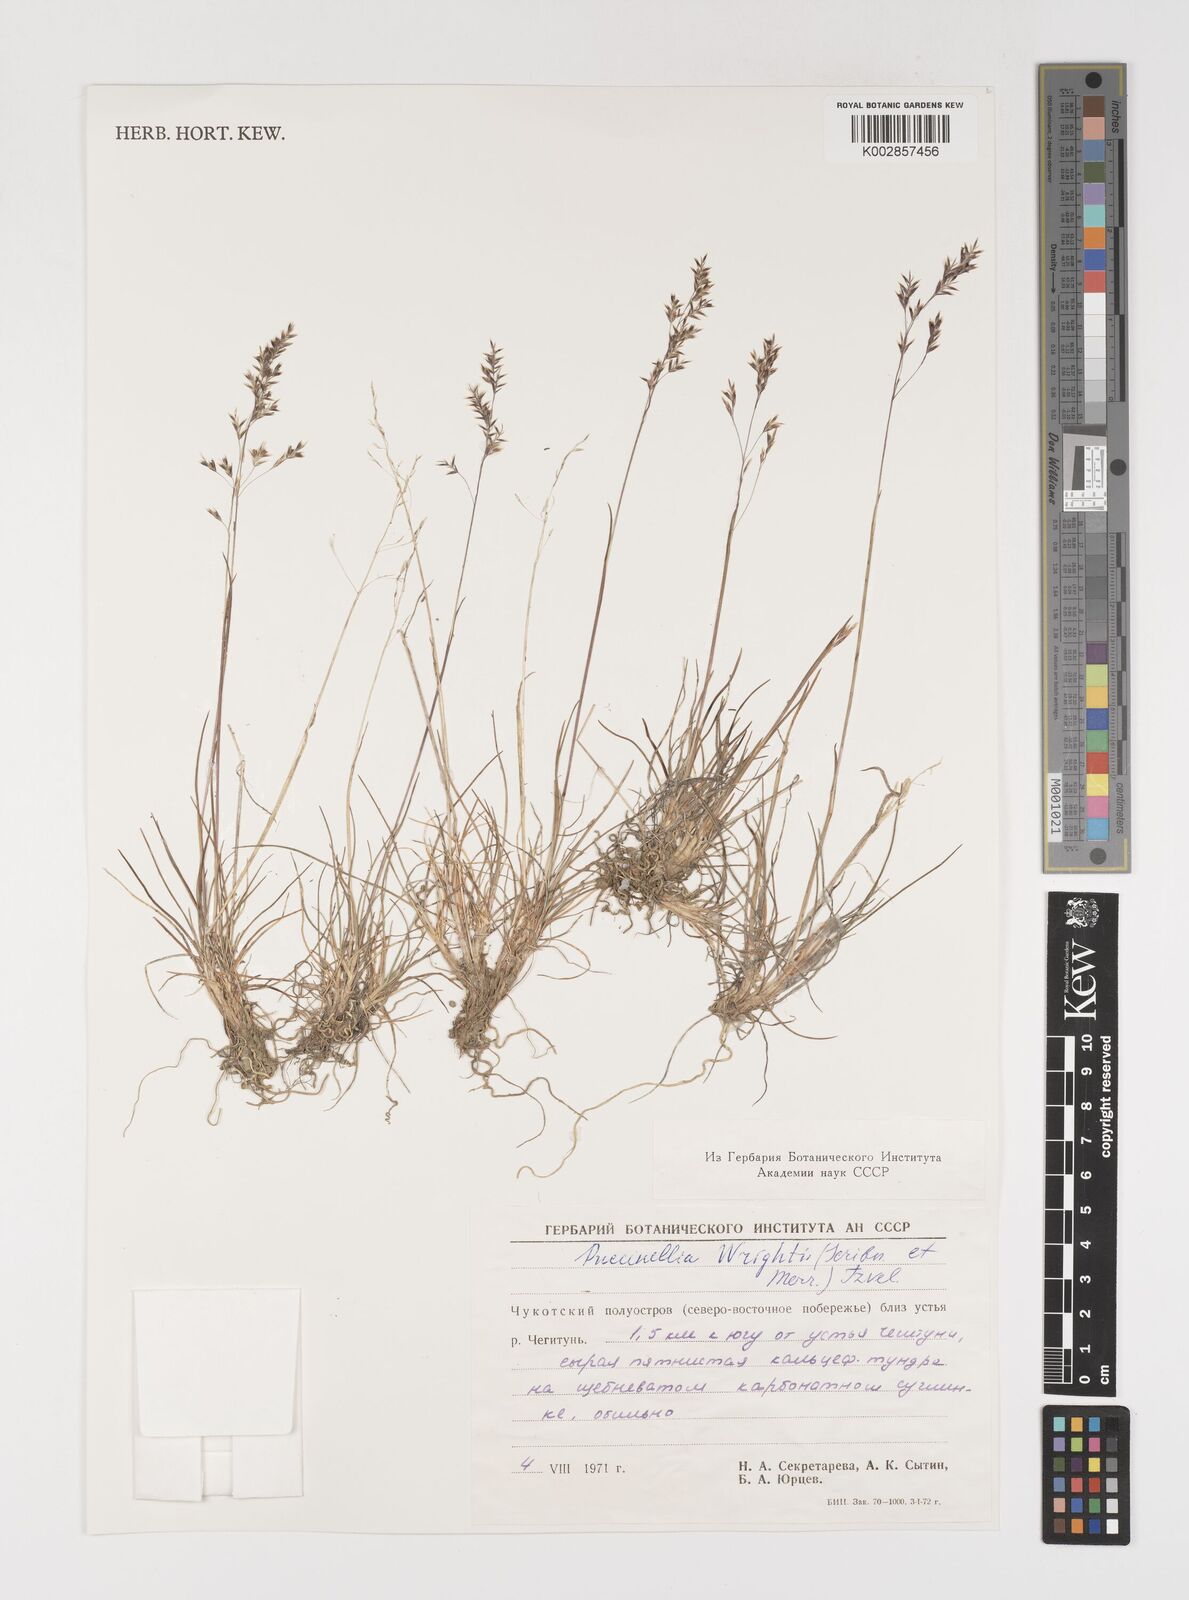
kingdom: Plantae
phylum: Tracheophyta
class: Liliopsida
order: Poales
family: Poaceae
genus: Puccinellia
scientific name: Puccinellia wrightii
